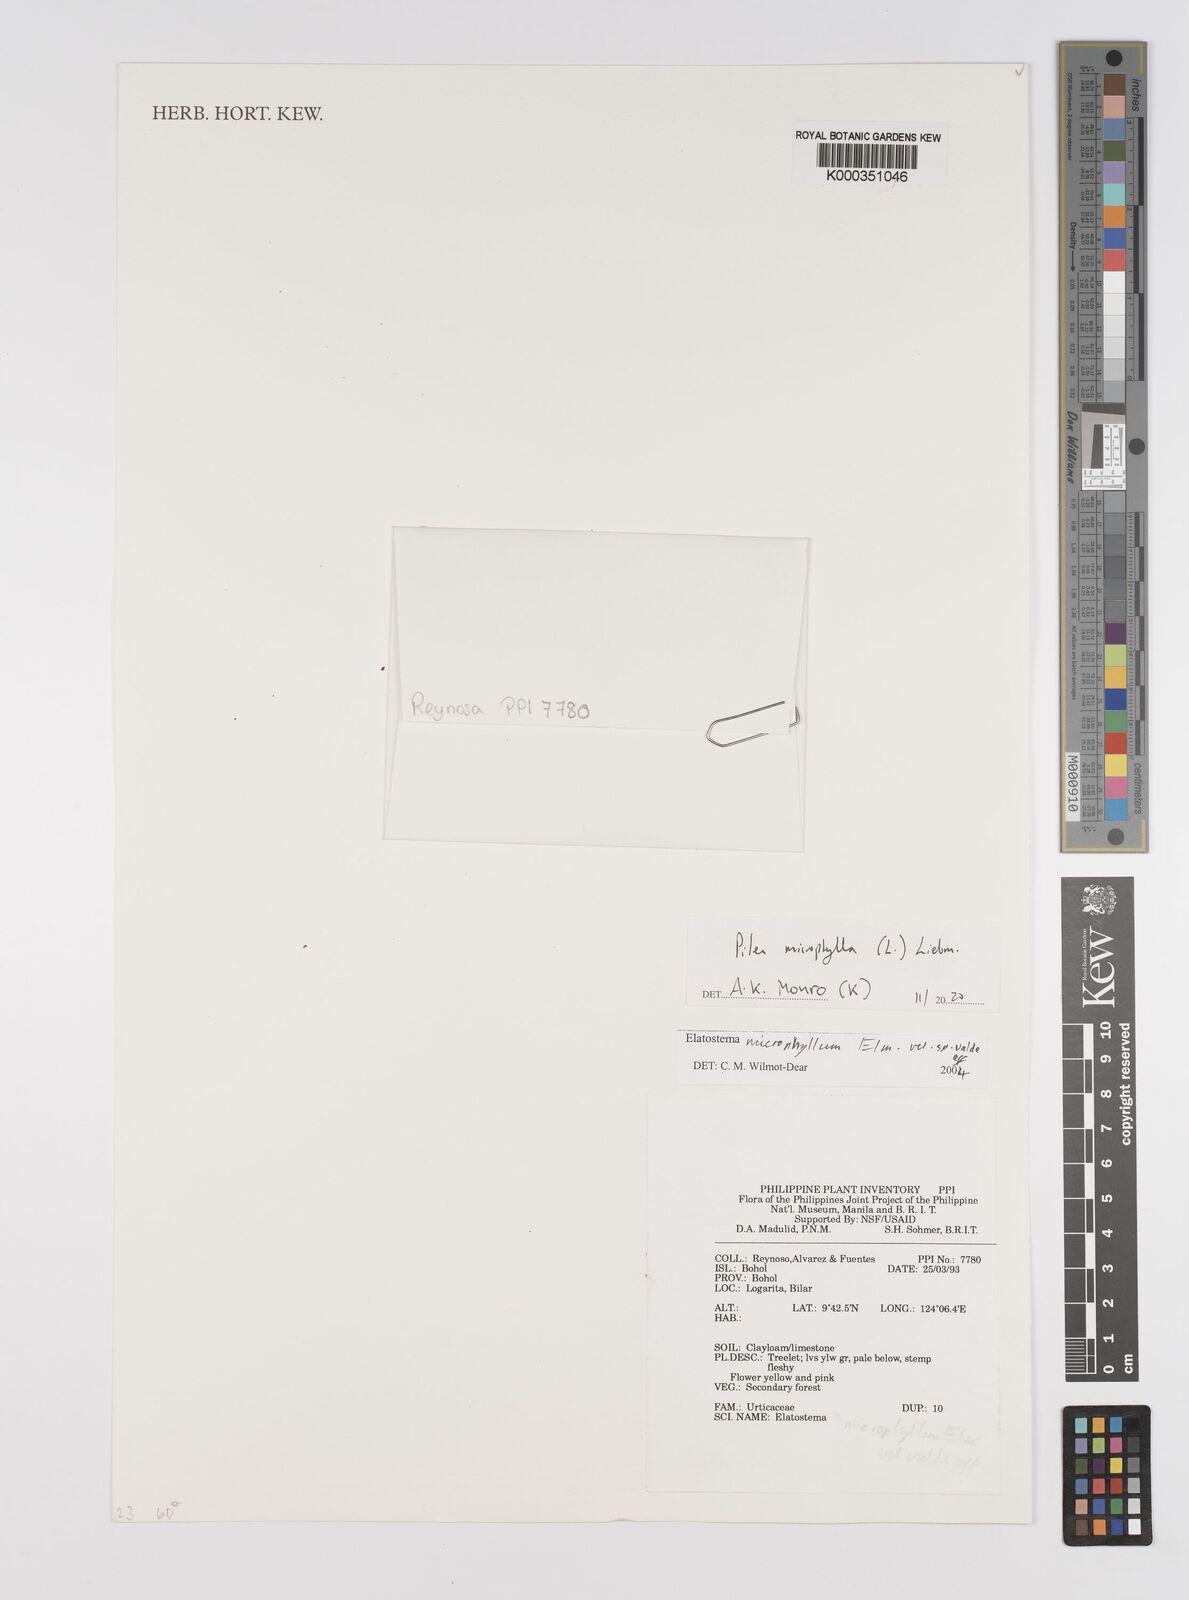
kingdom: Plantae
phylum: Tracheophyta
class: Magnoliopsida
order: Rosales
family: Urticaceae
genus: Elatostema
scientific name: Elatostema microphyllum
